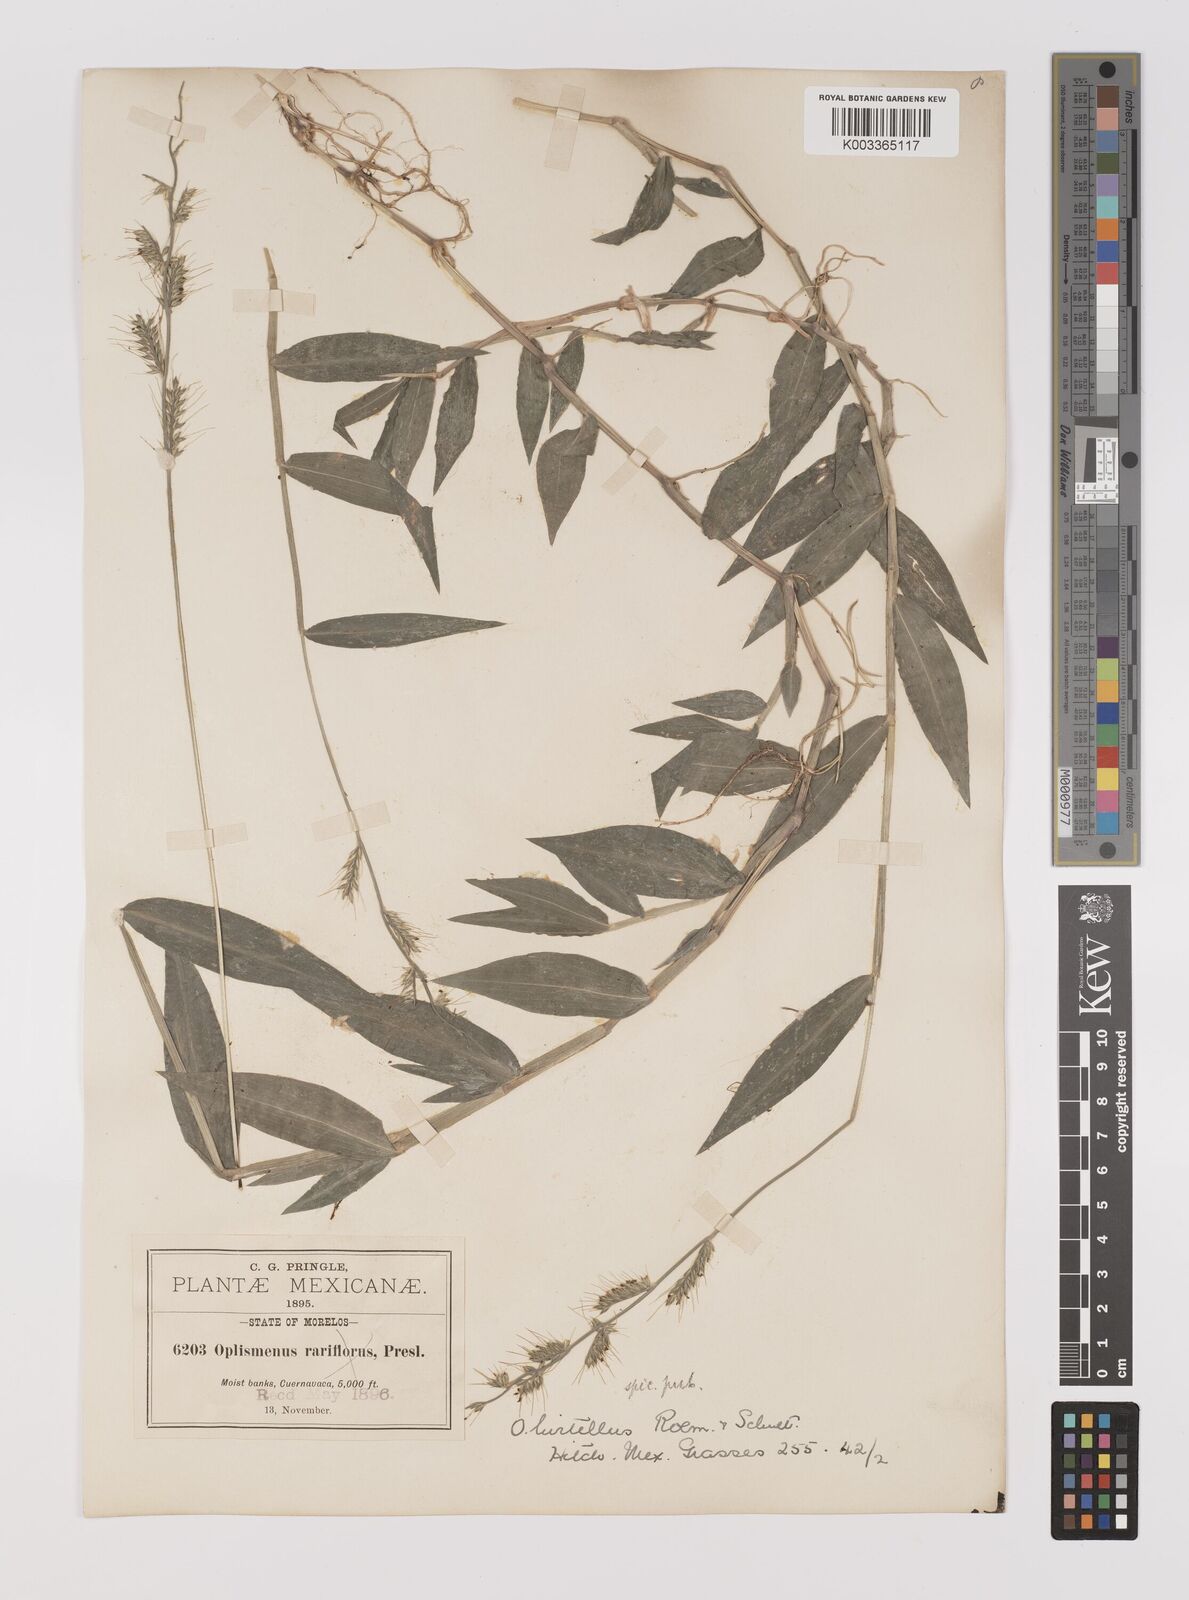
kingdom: Plantae
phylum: Tracheophyta
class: Liliopsida
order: Poales
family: Poaceae
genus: Oplismenus
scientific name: Oplismenus hirtellus
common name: Basketgrass
